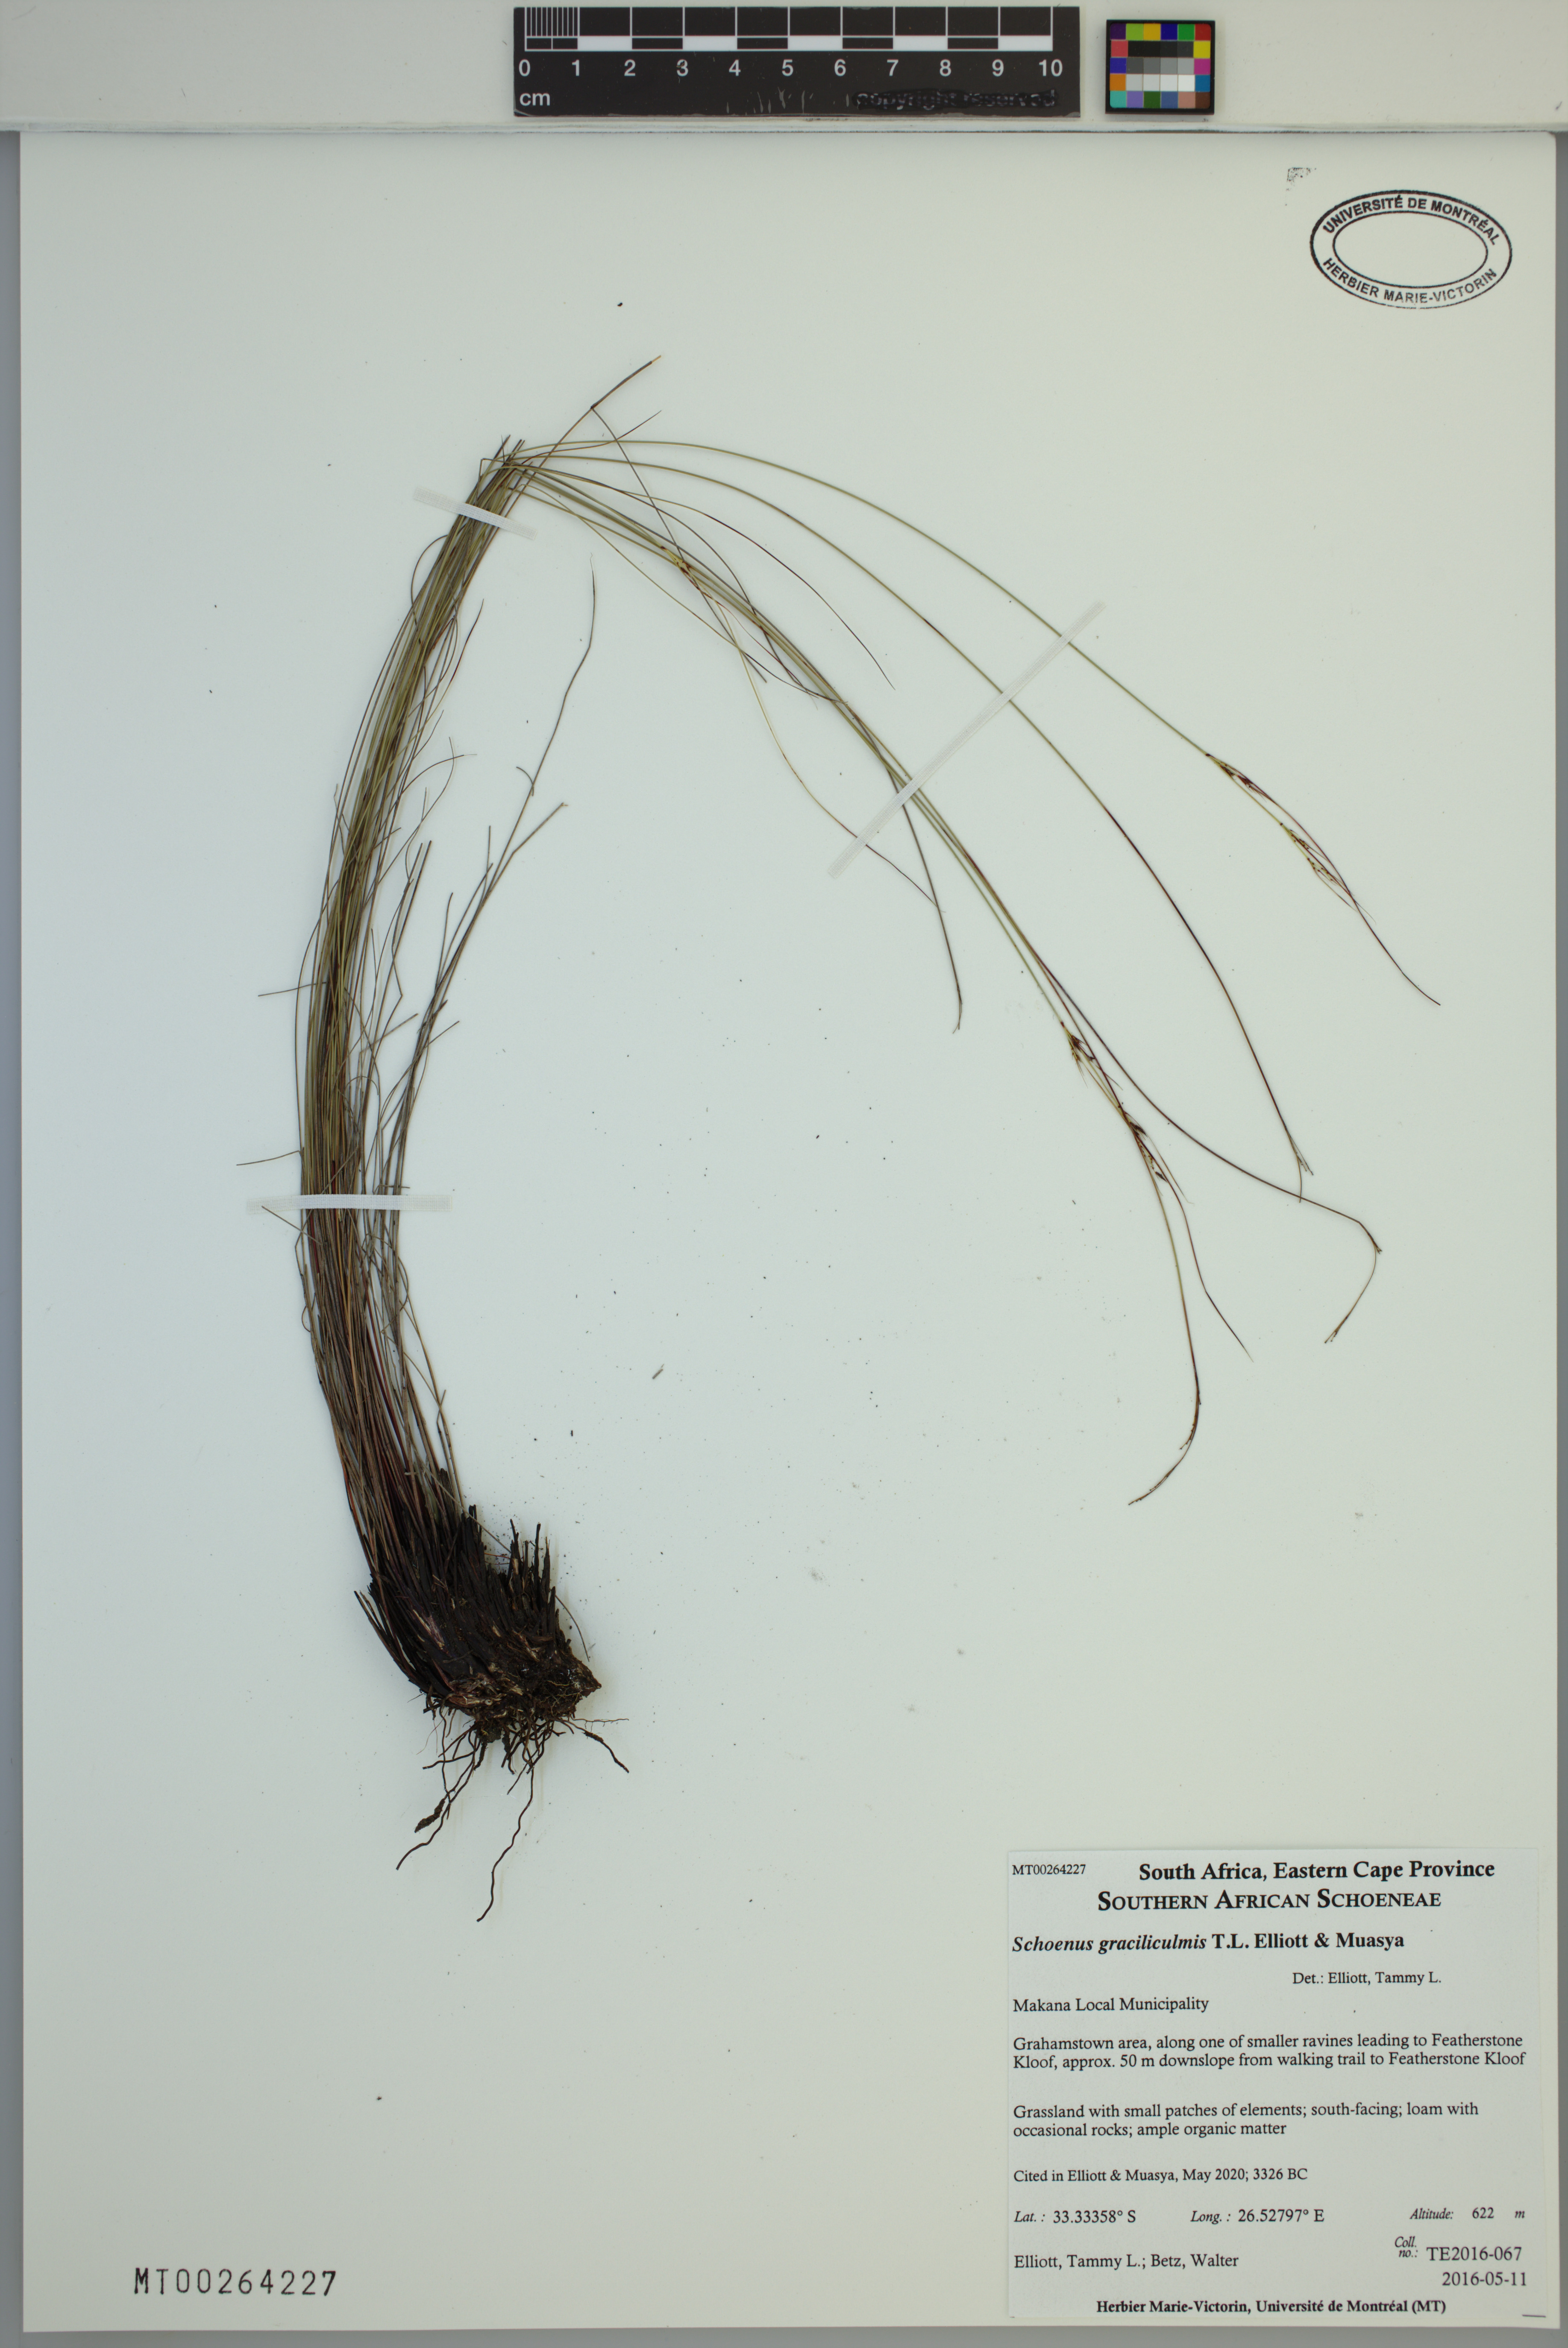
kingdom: Plantae
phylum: Tracheophyta
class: Liliopsida
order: Poales
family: Cyperaceae
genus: Schoenus
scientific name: Schoenus graciliculmis
